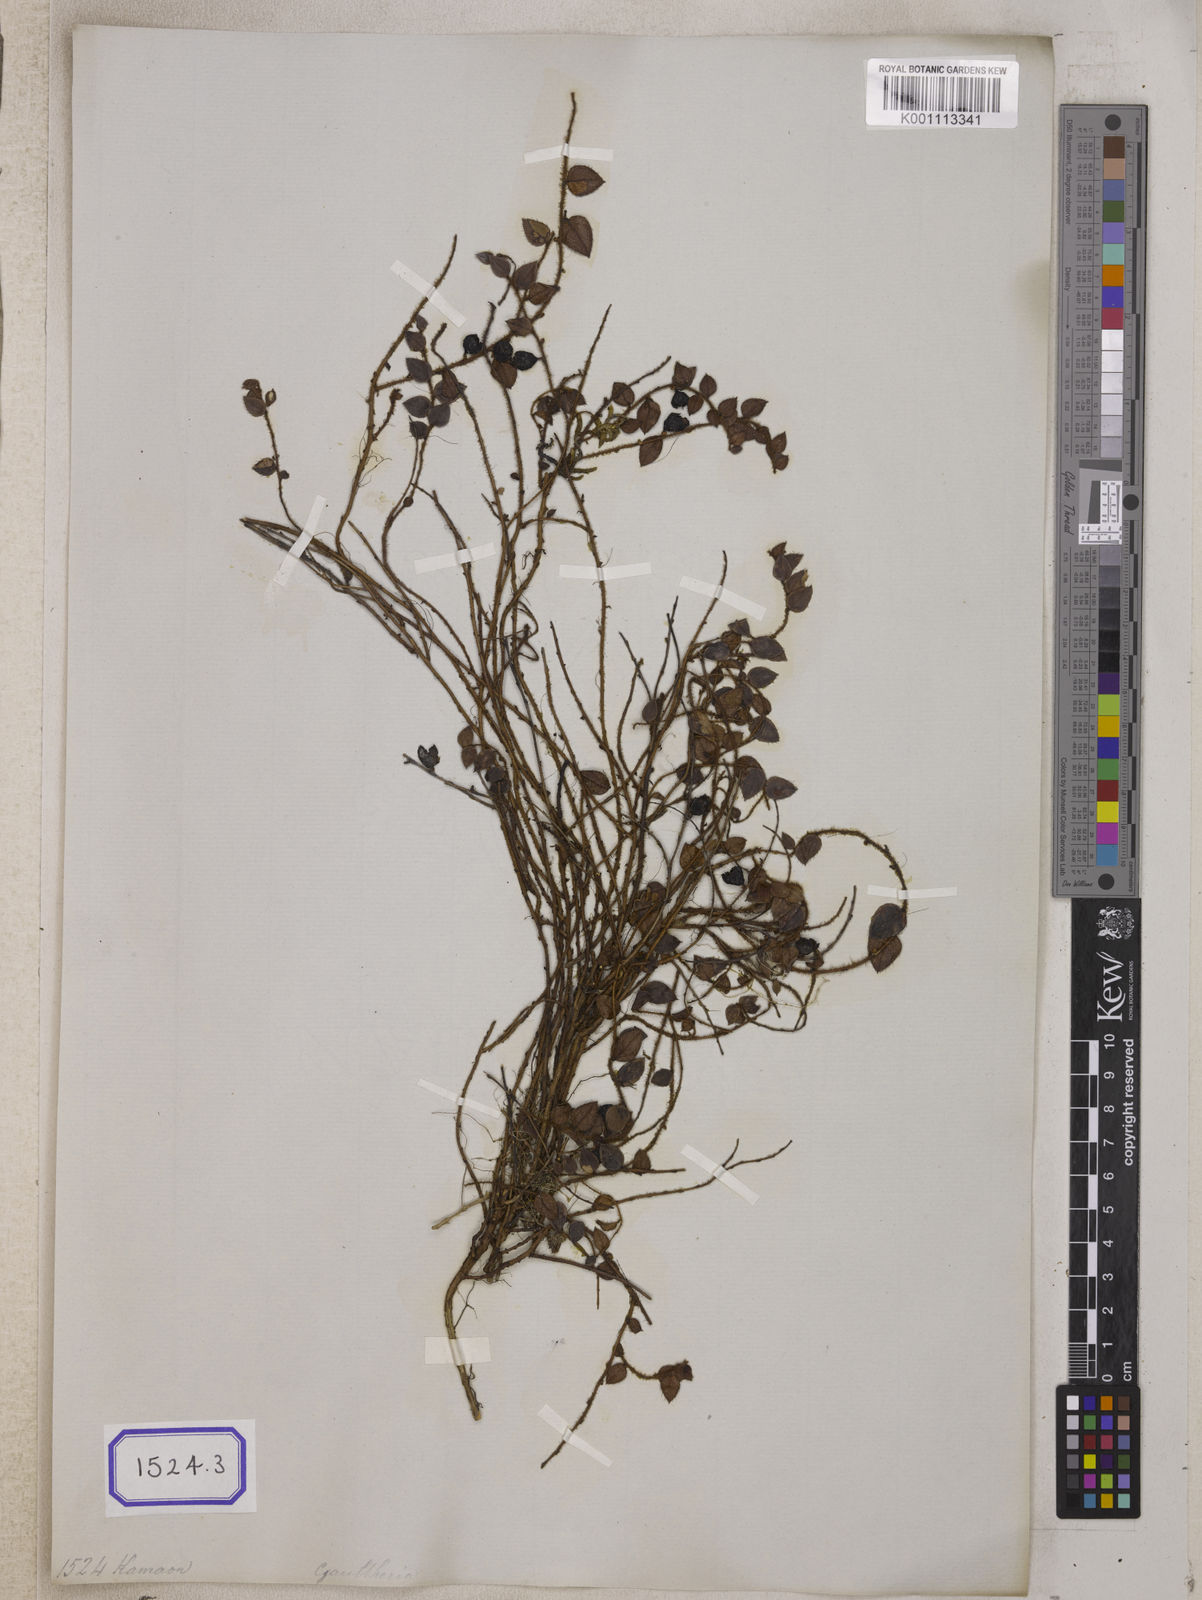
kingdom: Plantae
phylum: Tracheophyta
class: Magnoliopsida
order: Ericales
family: Ericaceae
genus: Gaultheria
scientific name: Gaultheria nummularioides
